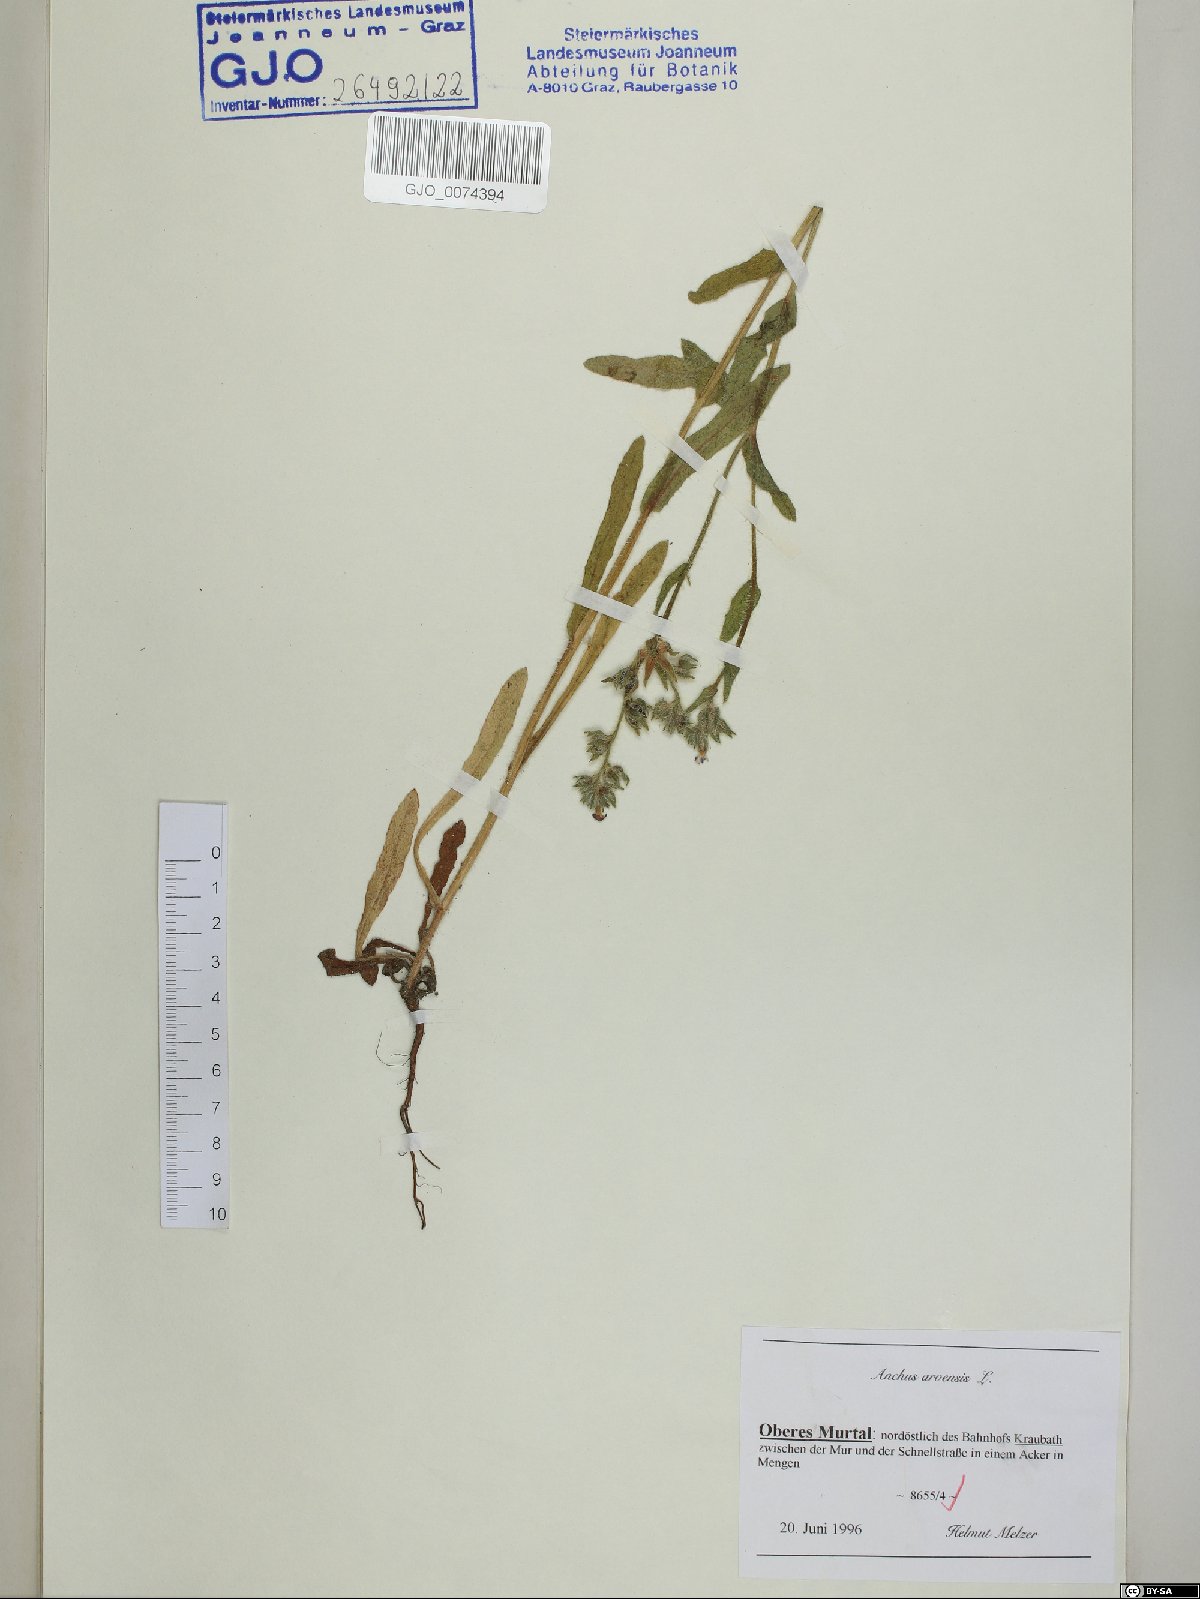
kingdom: Plantae
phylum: Tracheophyta
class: Magnoliopsida
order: Boraginales
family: Boraginaceae
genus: Lycopsis
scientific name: Lycopsis arvensis
